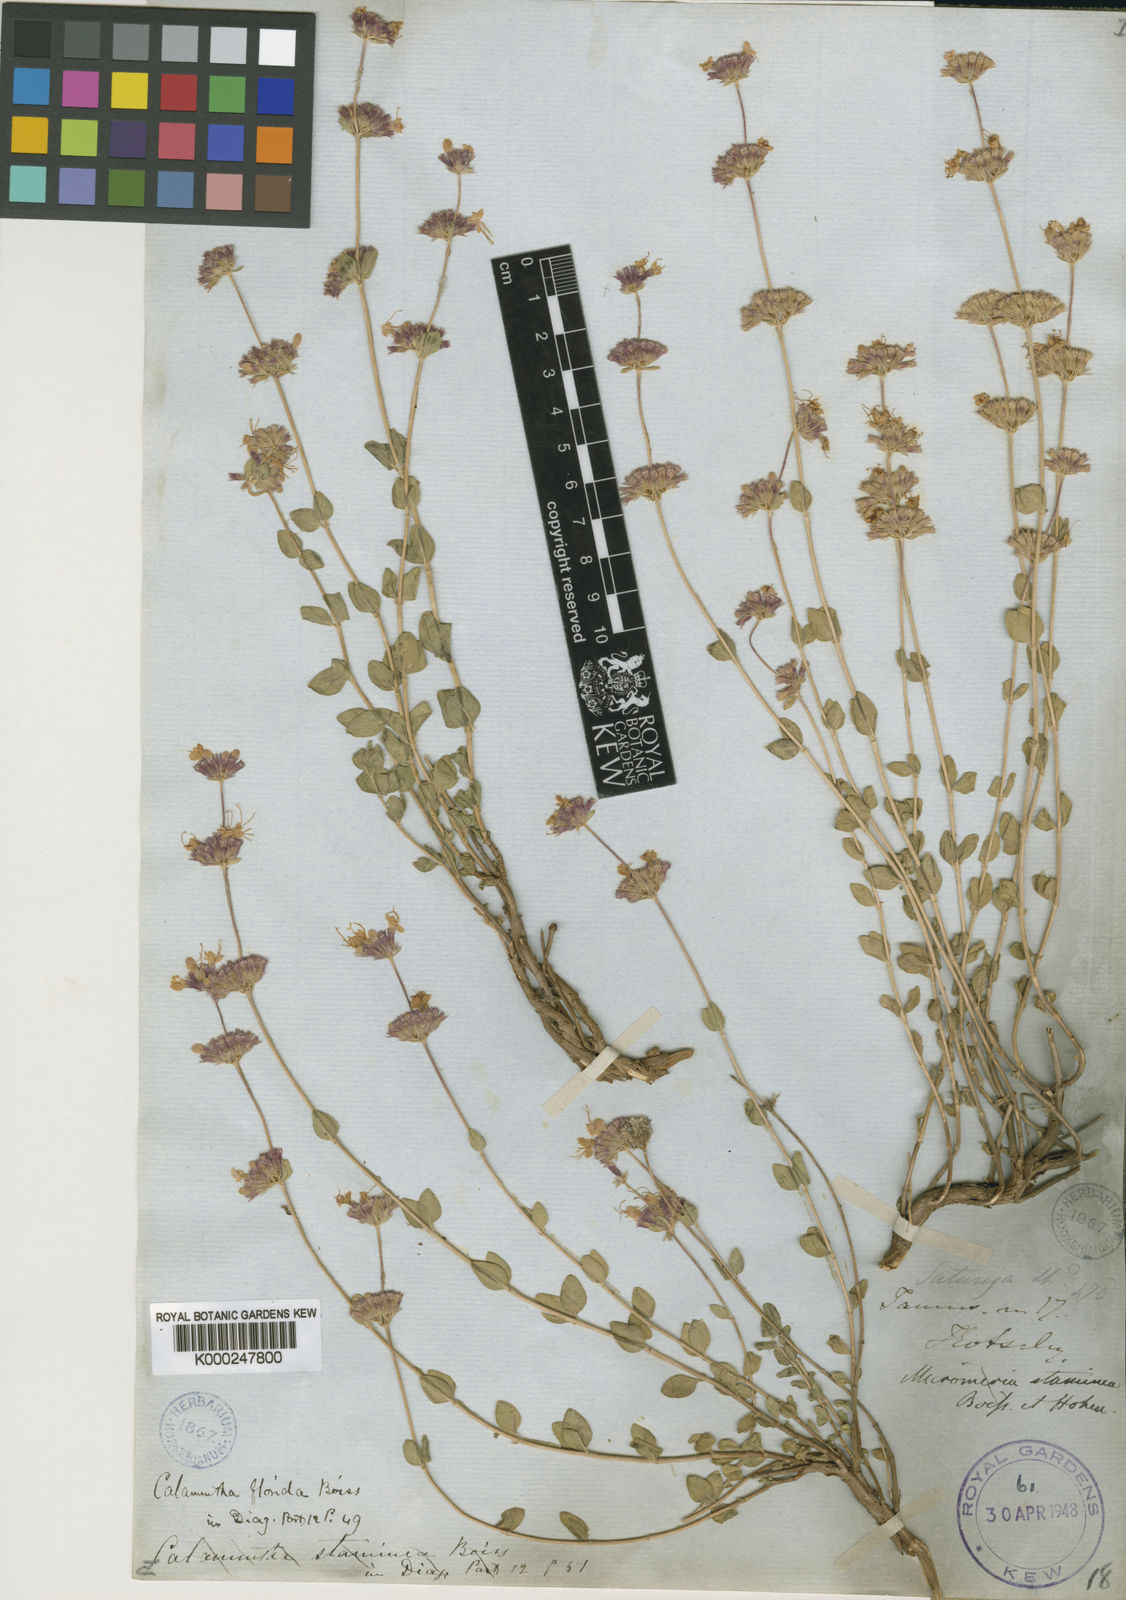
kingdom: Plantae
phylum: Tracheophyta
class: Magnoliopsida
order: Lamiales
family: Lamiaceae
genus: Cyclotrichium
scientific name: Cyclotrichium origanifolium
